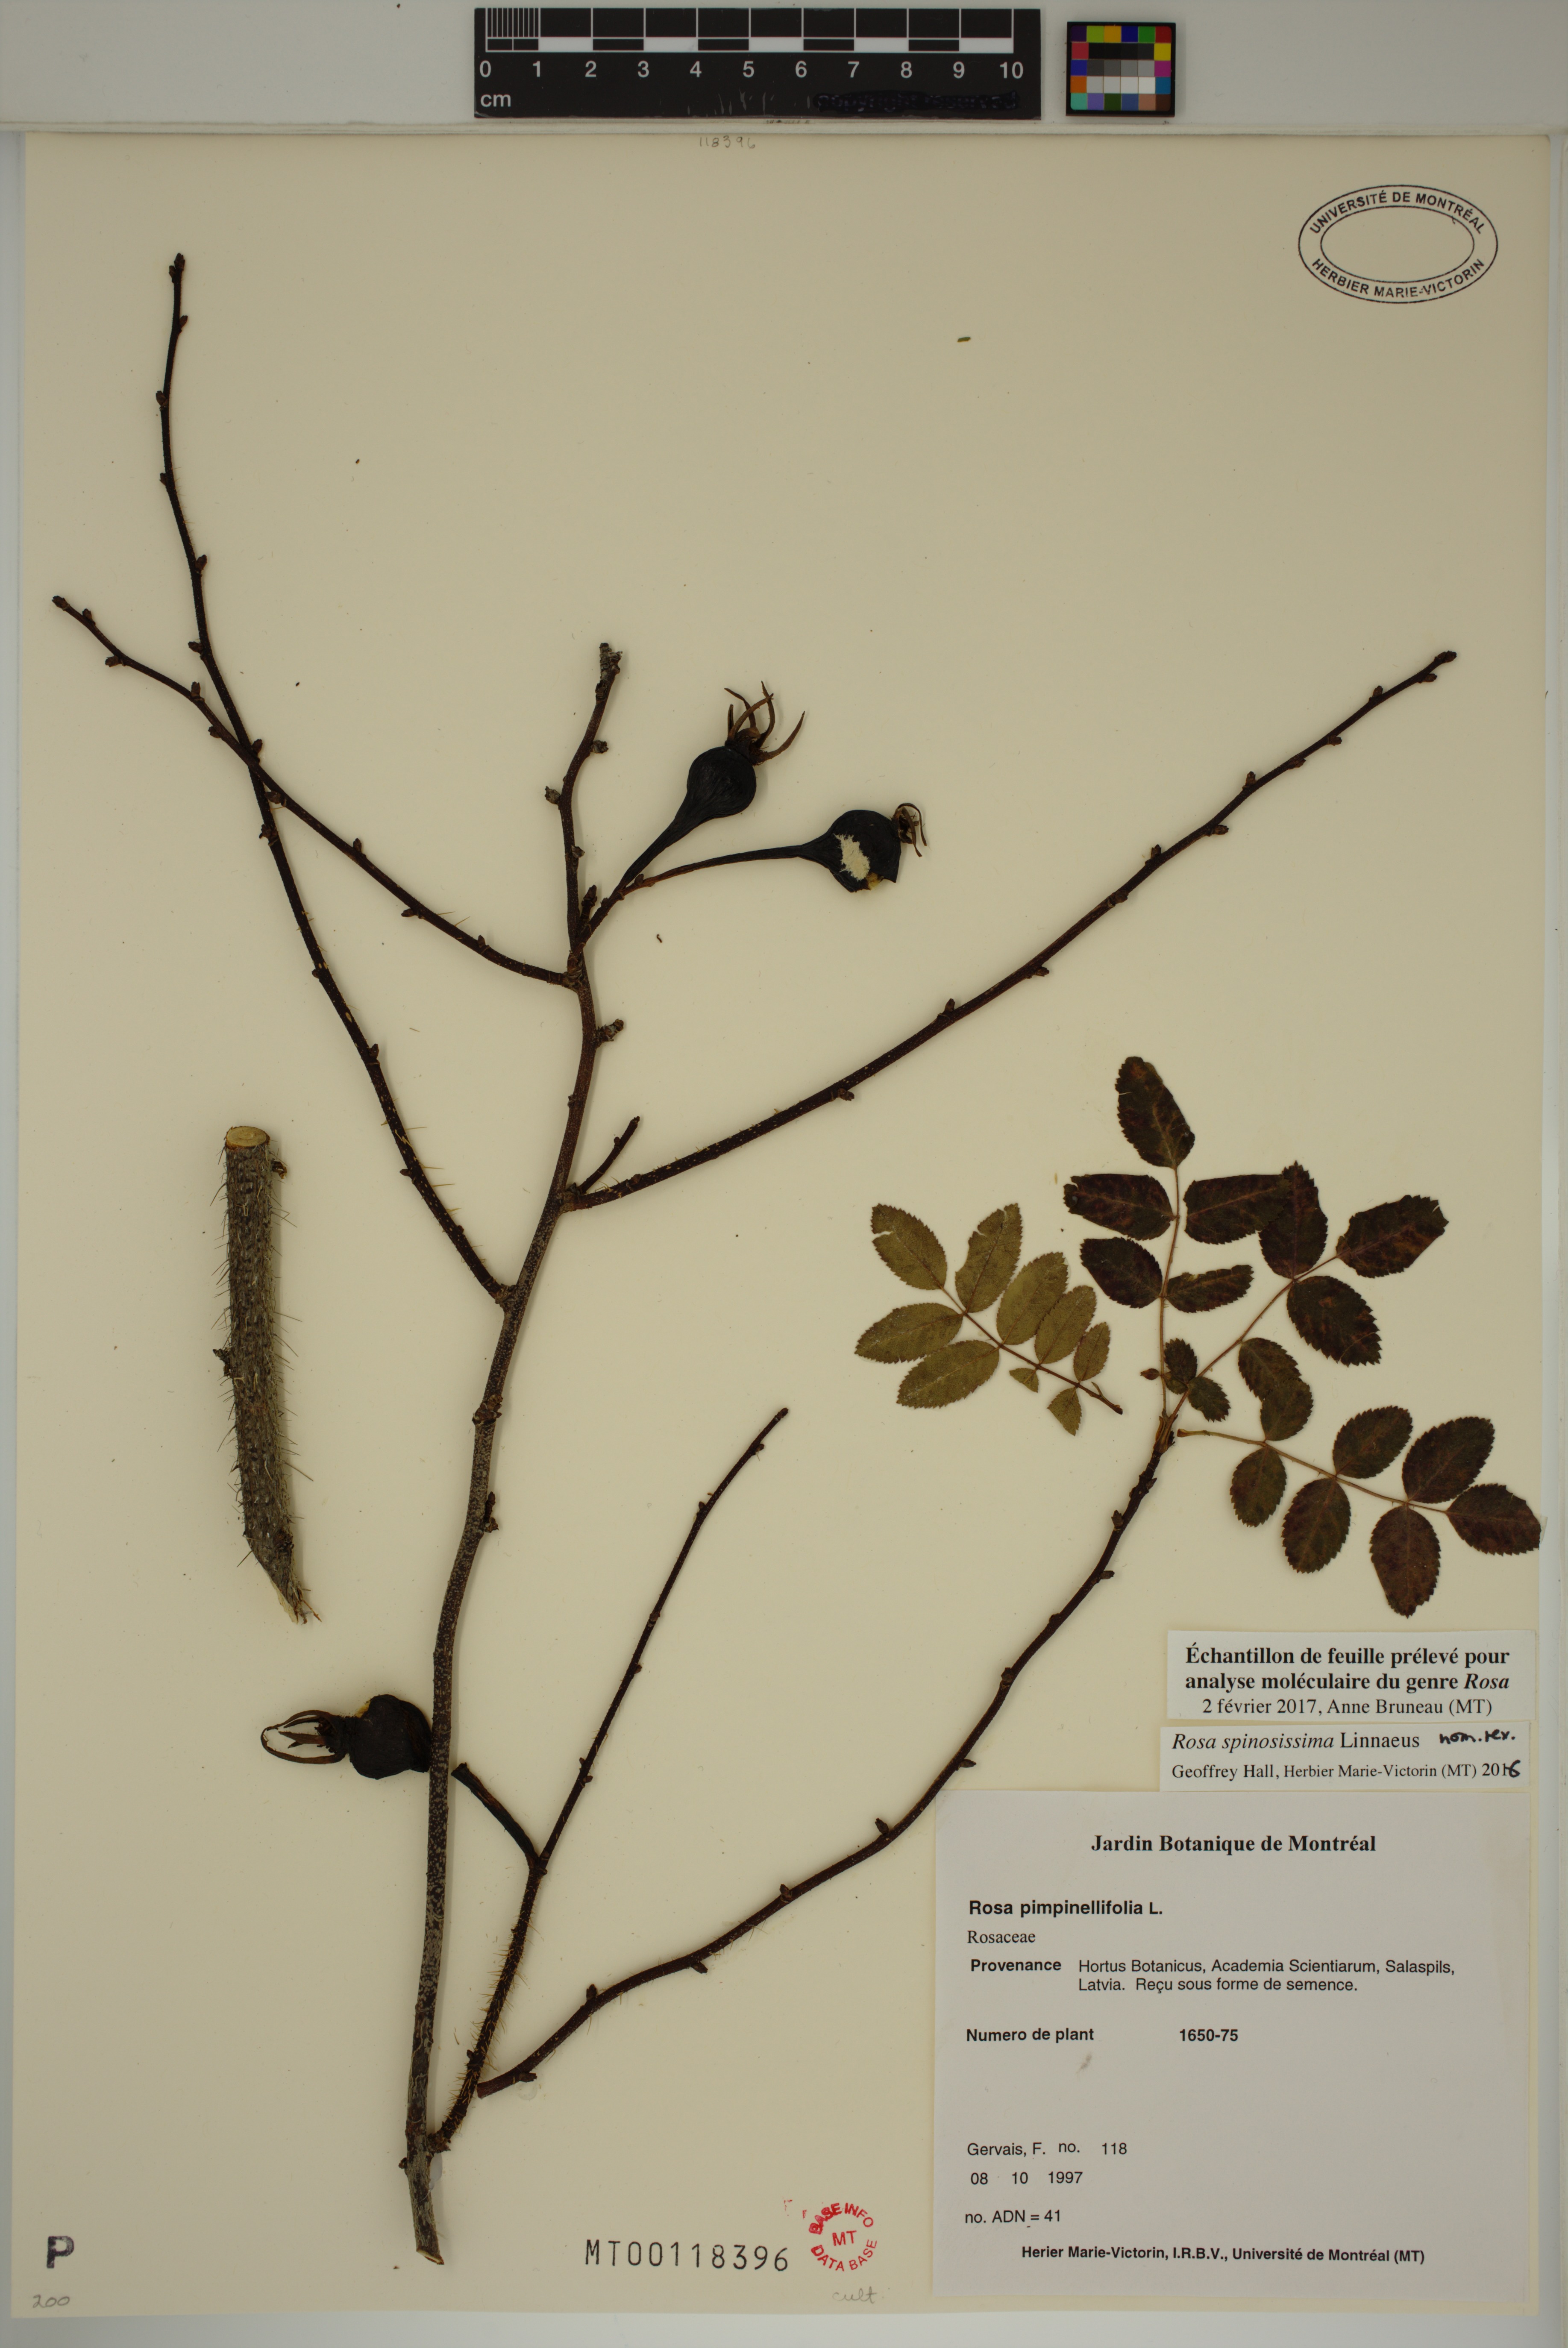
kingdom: Plantae
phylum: Tracheophyta
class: Magnoliopsida
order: Rosales
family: Rosaceae
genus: Rosa
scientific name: Rosa spinosissima
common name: Burnet rose
